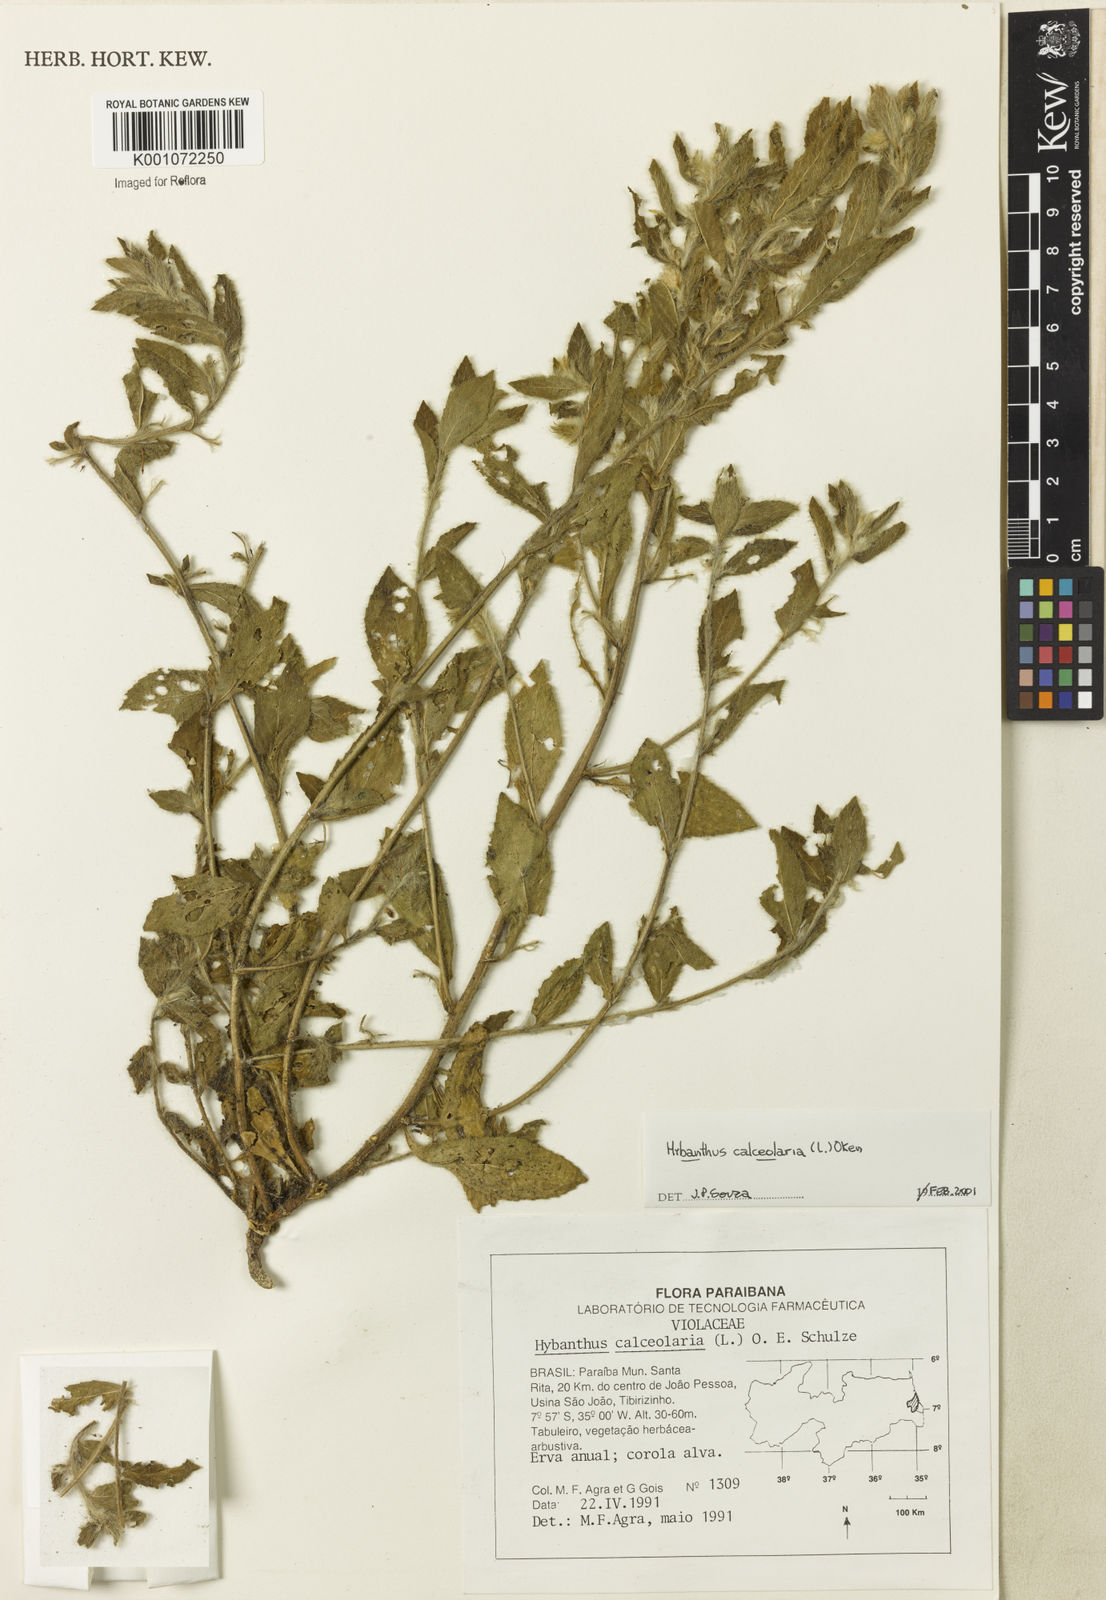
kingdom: Plantae
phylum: Tracheophyta
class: Magnoliopsida
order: Malpighiales
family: Violaceae
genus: Pombalia
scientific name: Pombalia calceolaria
